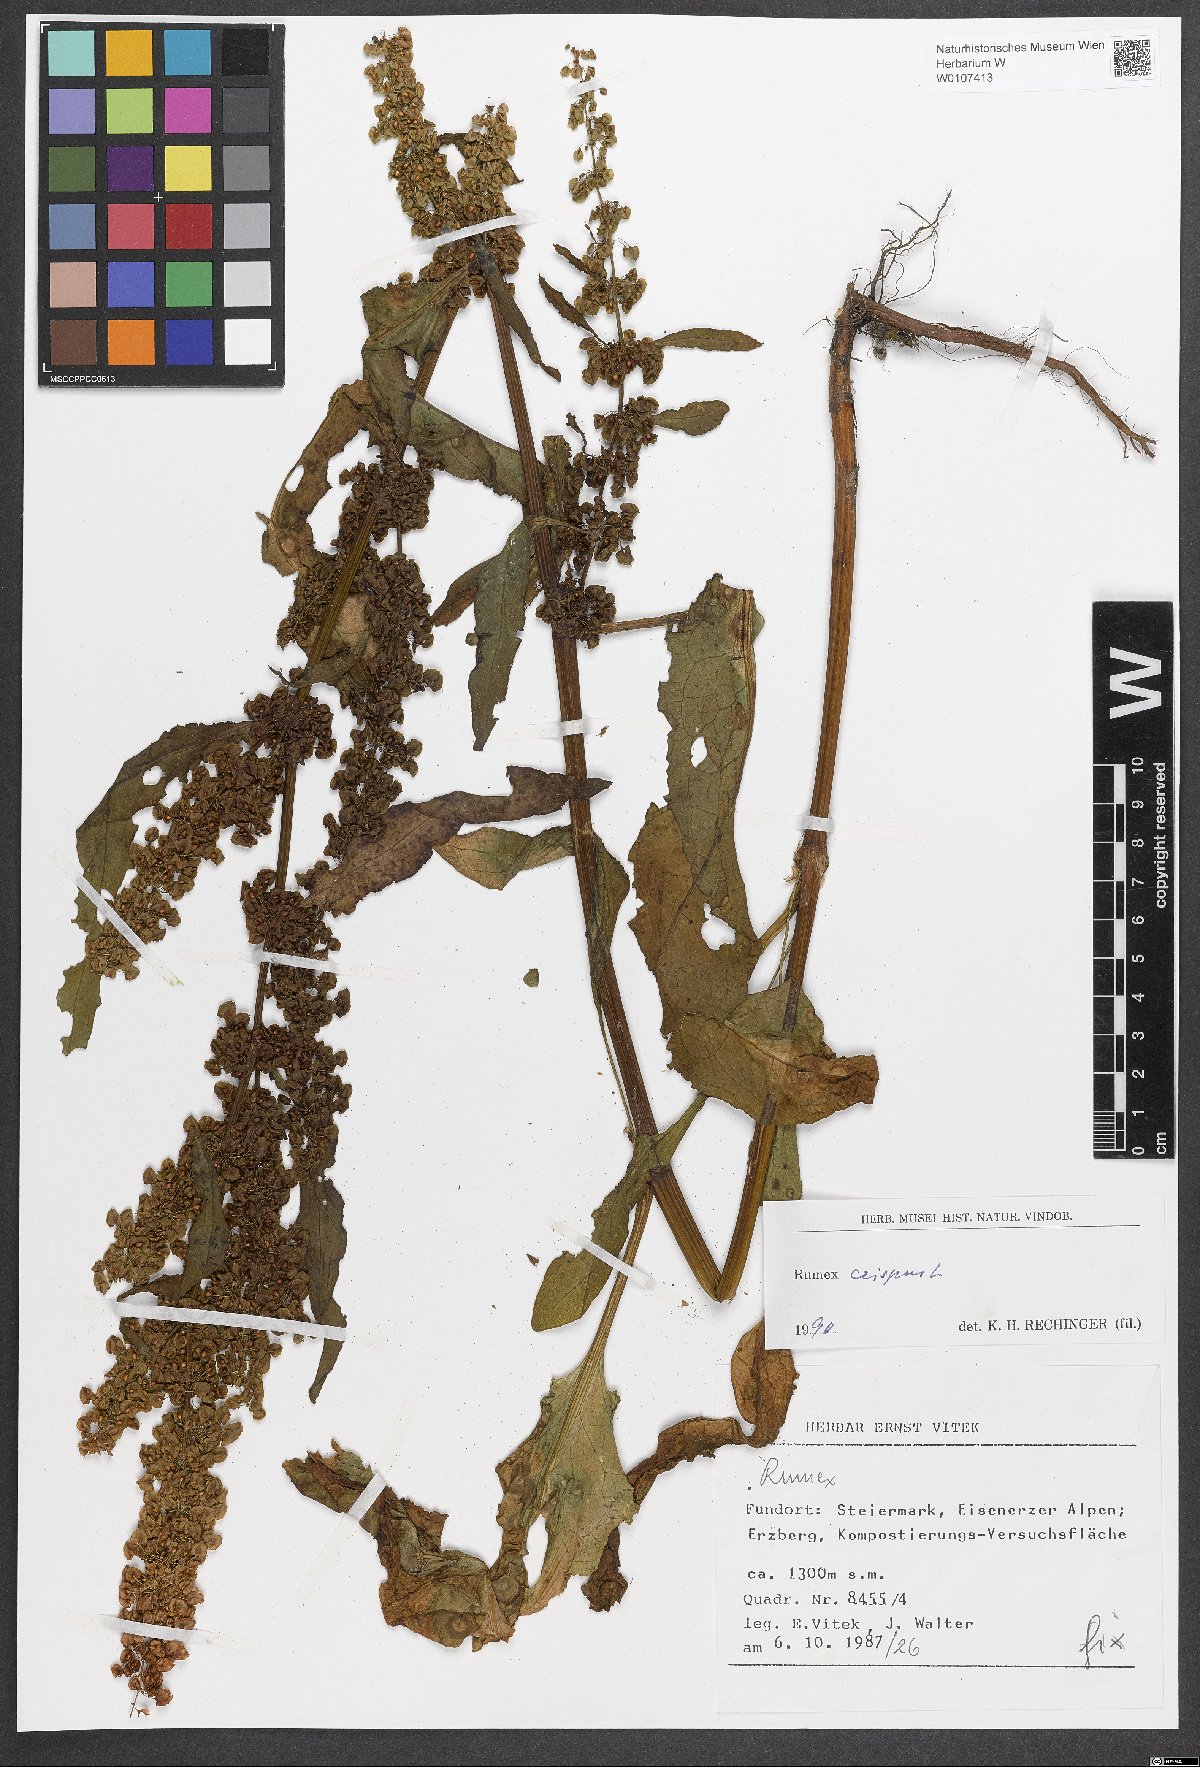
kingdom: Plantae
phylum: Tracheophyta
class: Magnoliopsida
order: Caryophyllales
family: Polygonaceae
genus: Rumex
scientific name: Rumex crispus
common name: Curled dock
